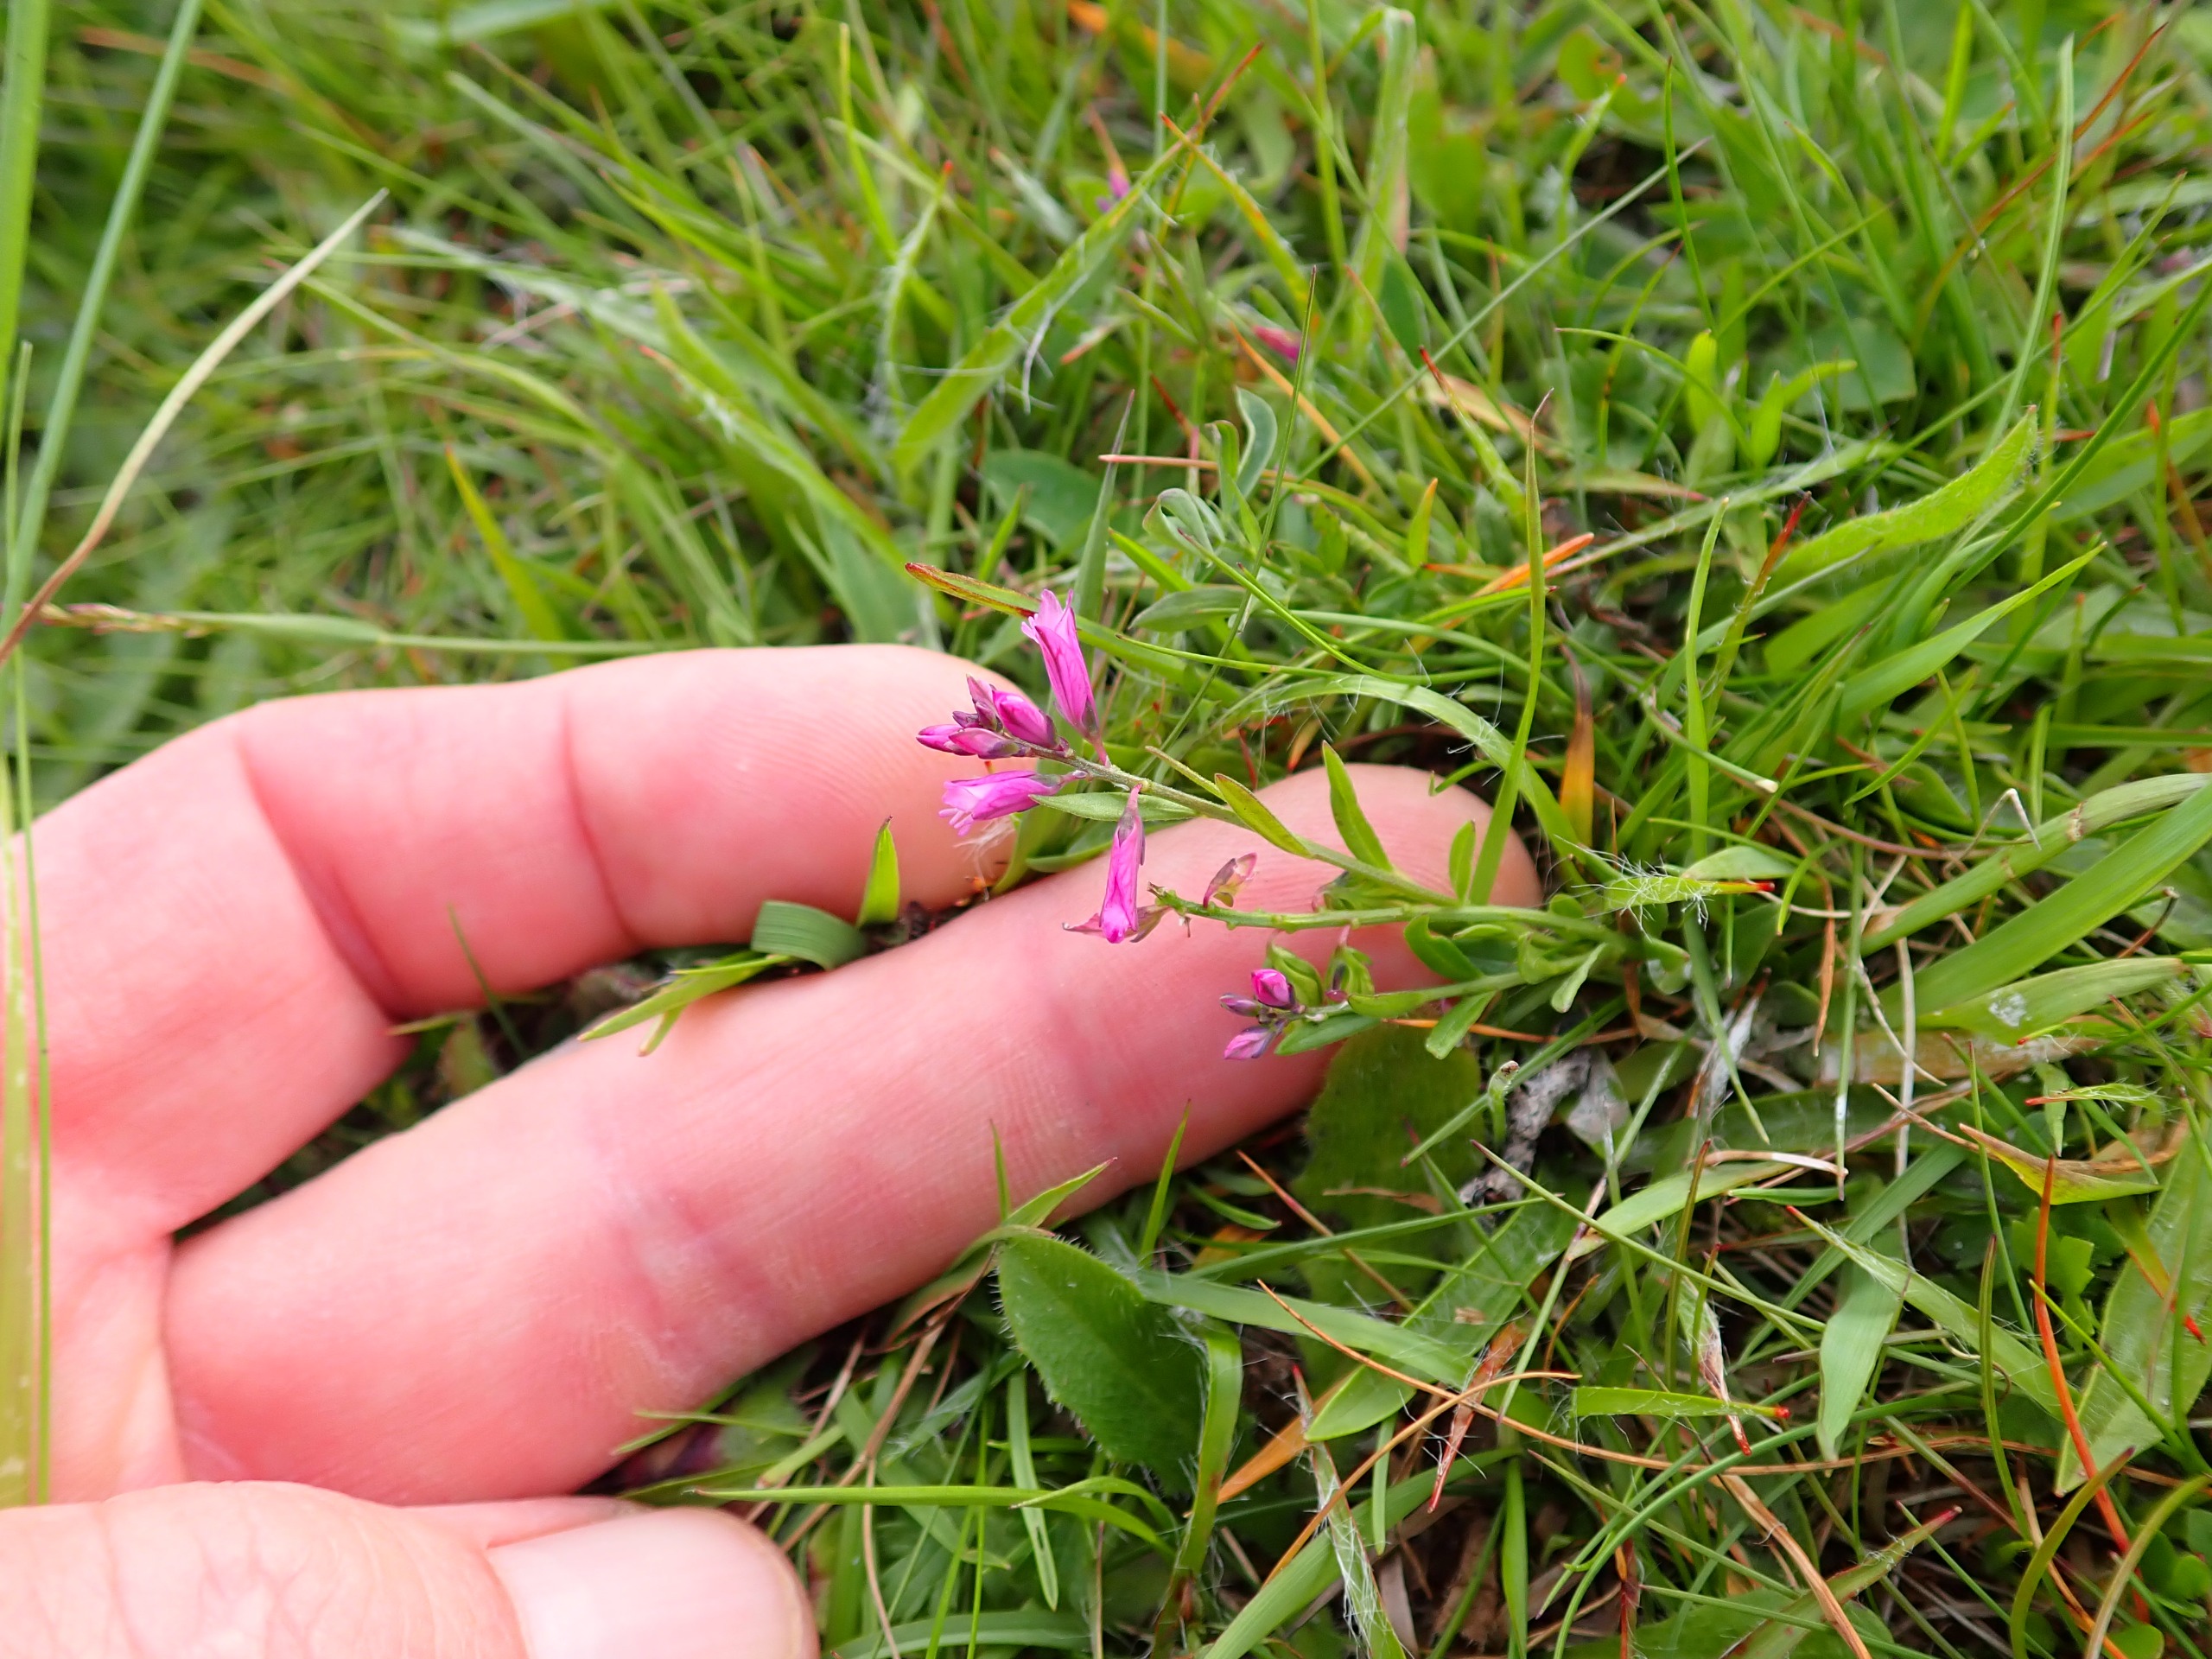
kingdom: Plantae
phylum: Tracheophyta
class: Magnoliopsida
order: Fabales
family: Polygalaceae
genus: Polygala
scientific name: Polygala vulgaris
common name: Almindelig mælkeurt
